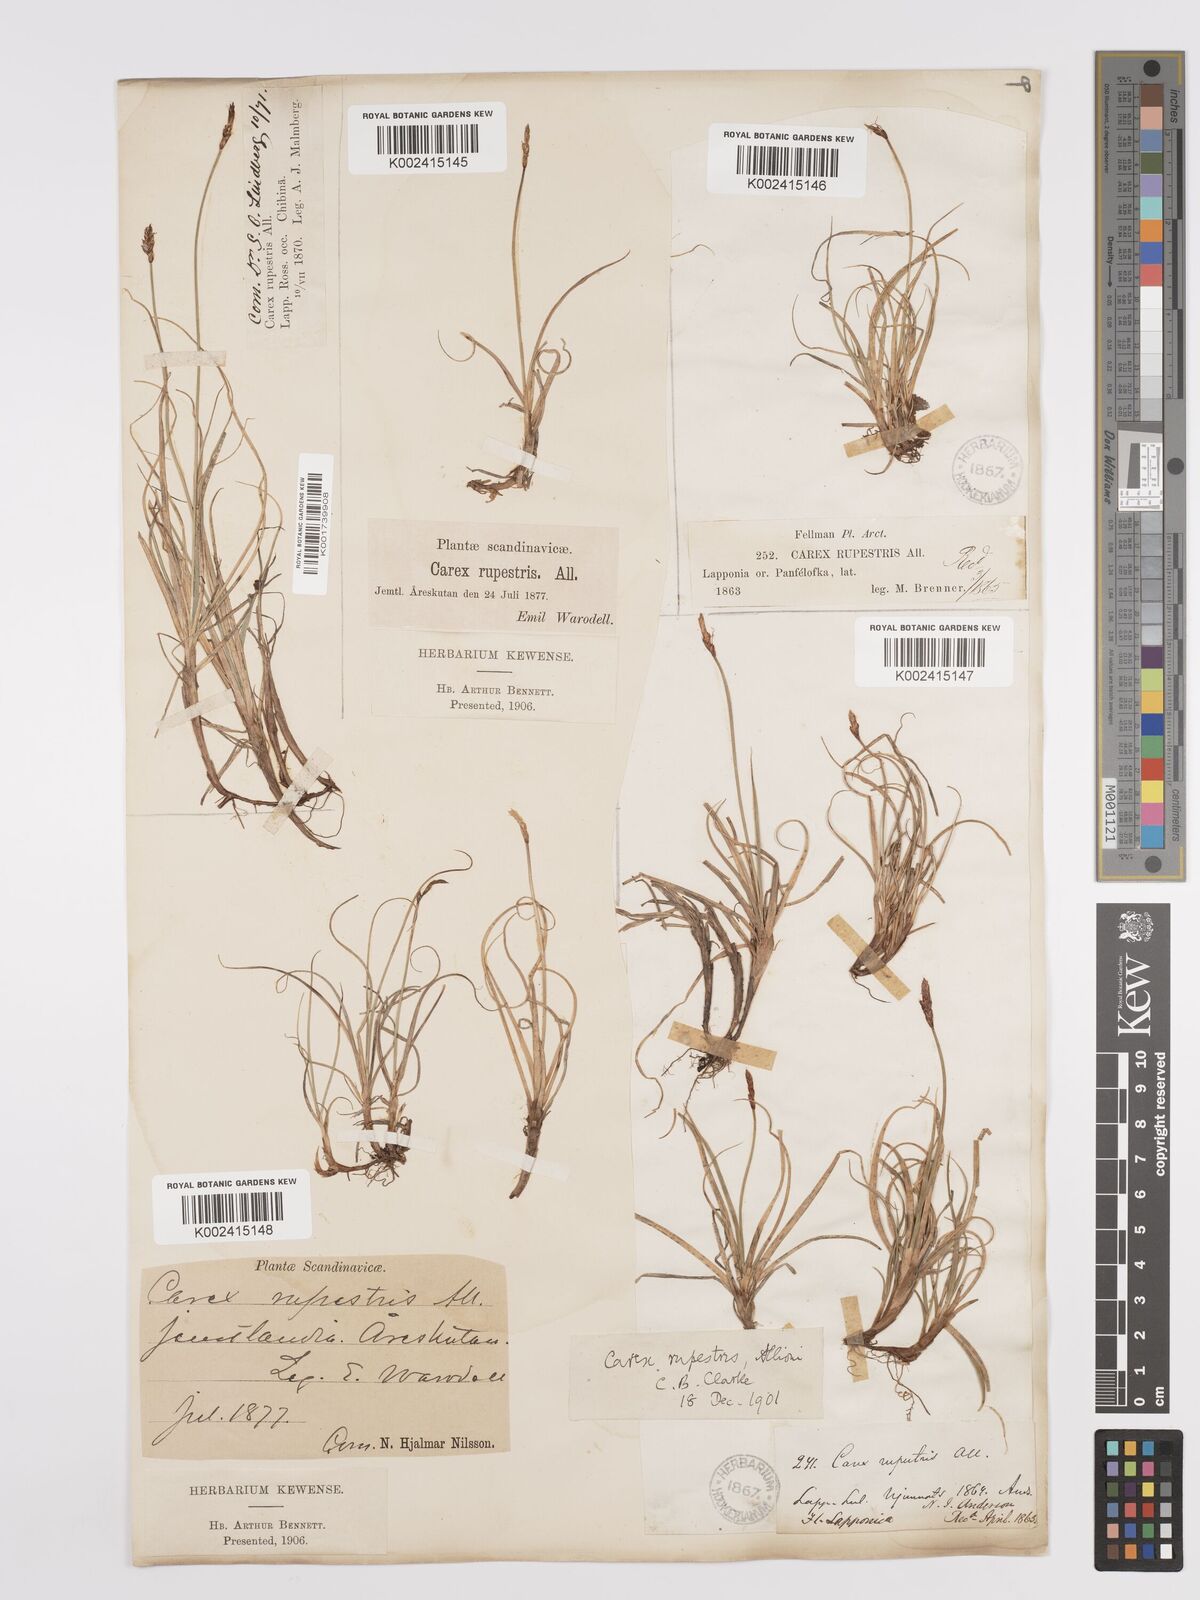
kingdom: Plantae
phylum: Tracheophyta
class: Liliopsida
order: Poales
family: Cyperaceae
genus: Carex
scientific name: Carex rupestris
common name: Rock sedge
